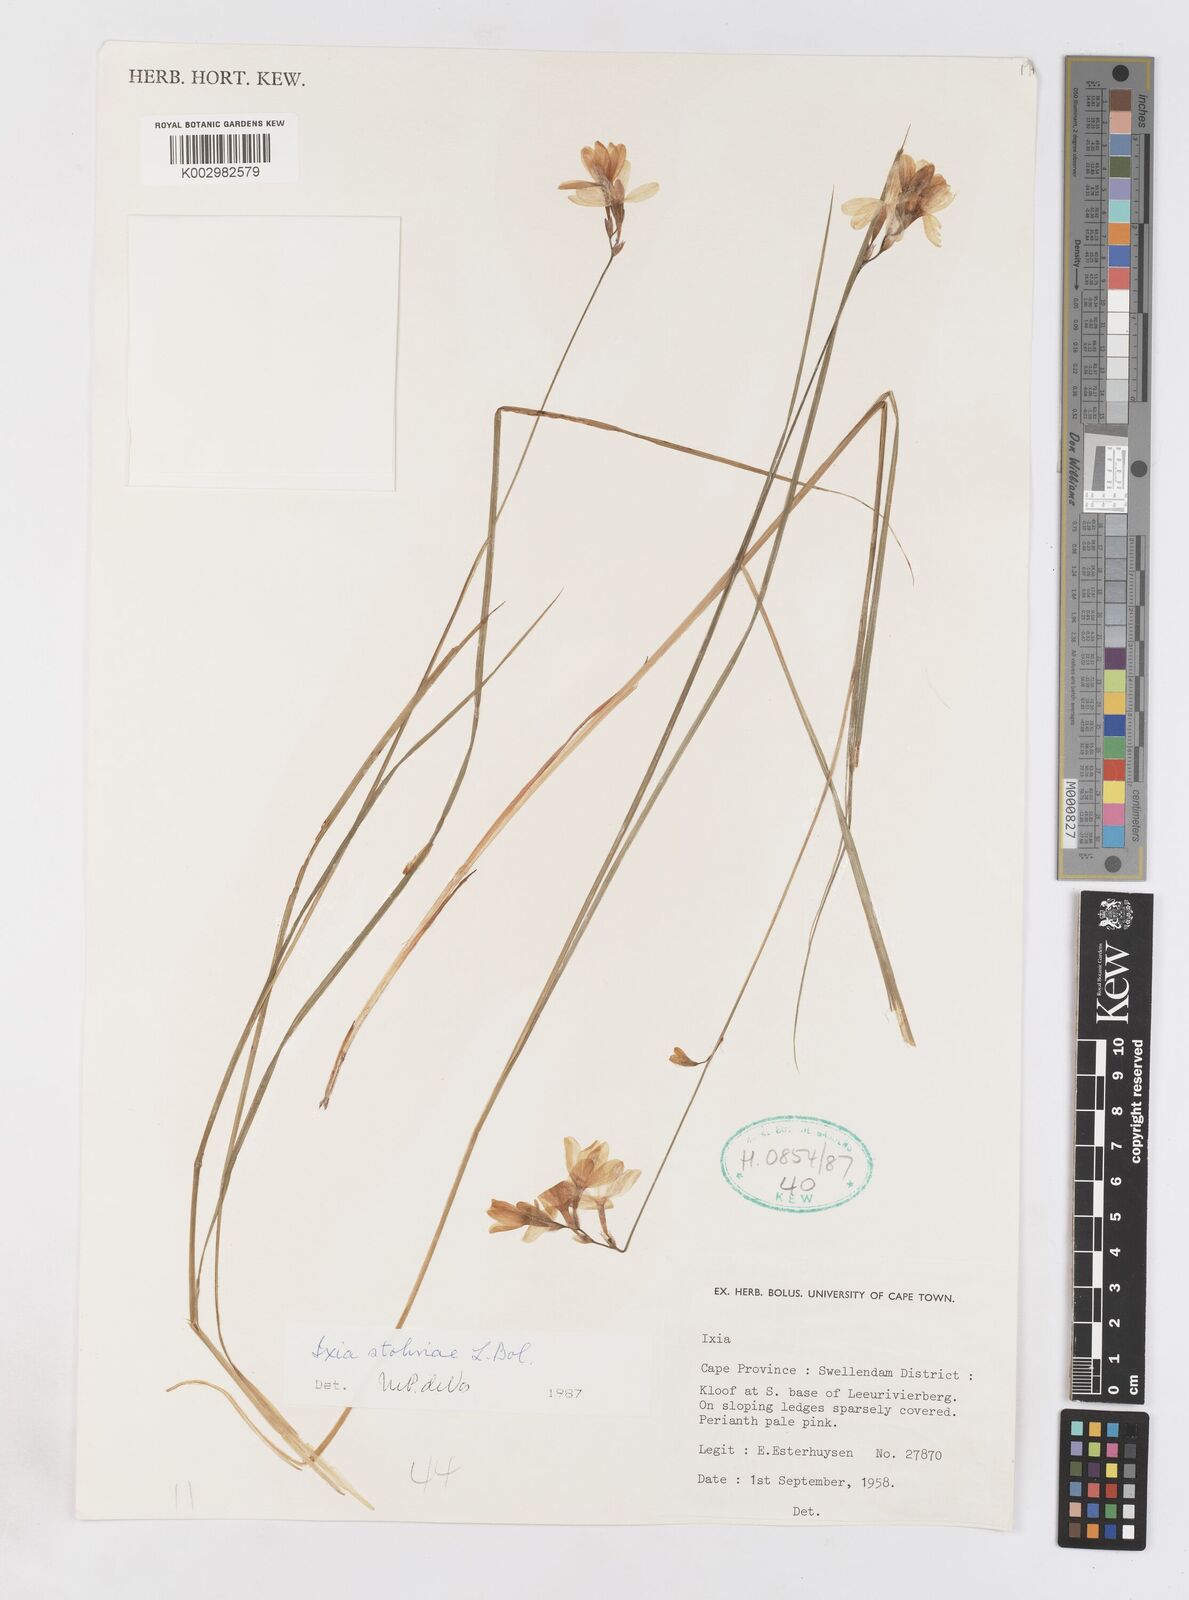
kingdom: Plantae
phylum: Tracheophyta
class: Liliopsida
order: Asparagales
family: Iridaceae
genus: Ixia
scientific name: Ixia stohriae
